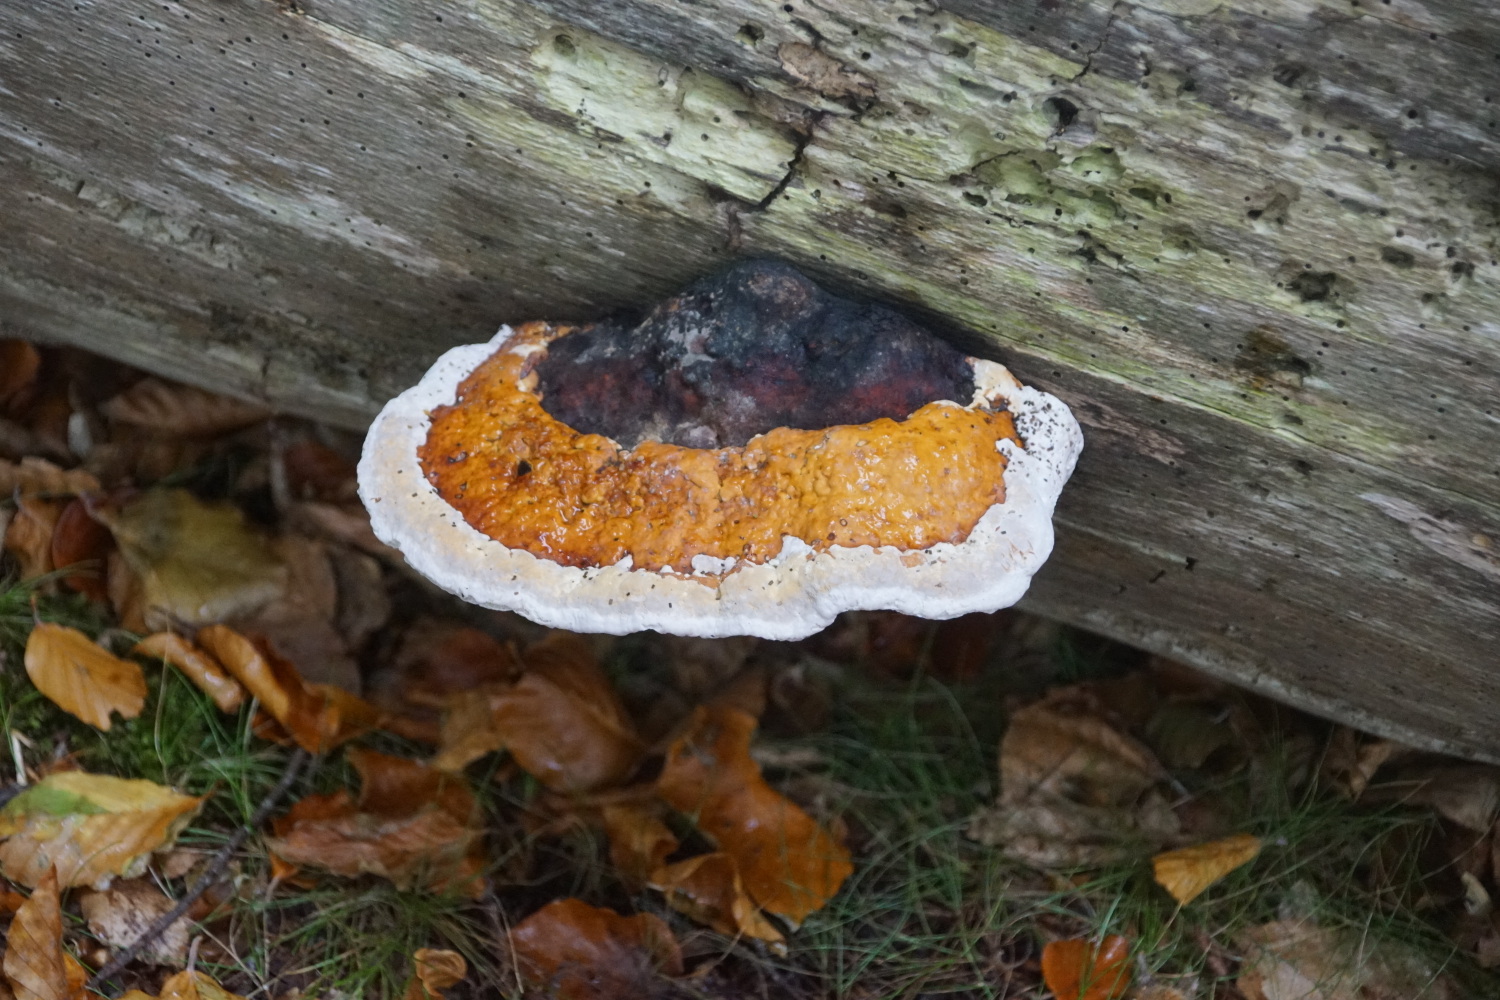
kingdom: Fungi
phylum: Basidiomycota
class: Agaricomycetes
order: Polyporales
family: Fomitopsidaceae
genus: Fomitopsis
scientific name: Fomitopsis pinicola
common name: randbæltet hovporesvamp
